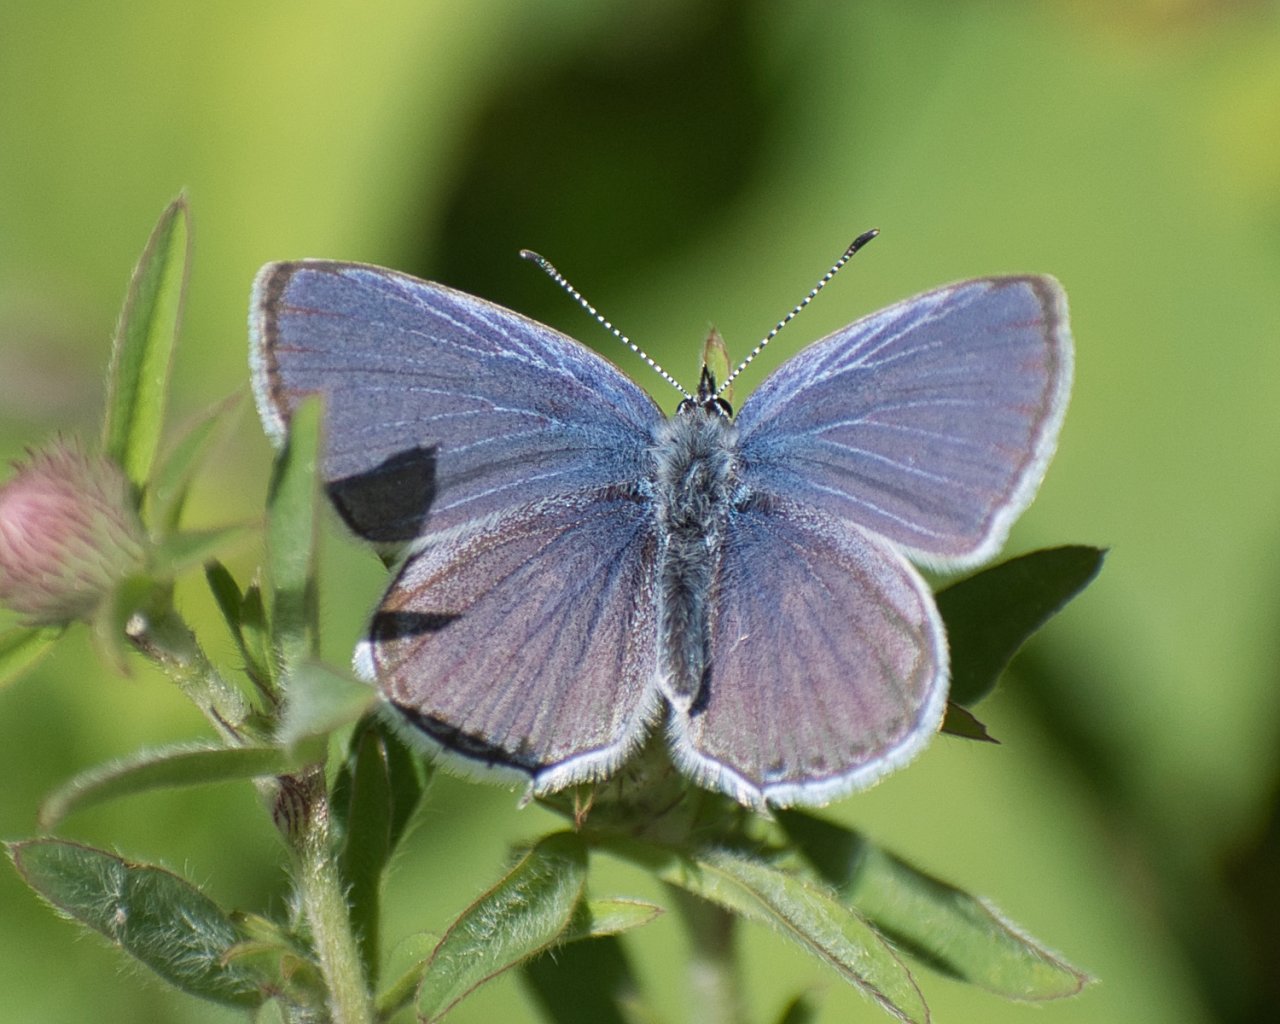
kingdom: Animalia
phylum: Arthropoda
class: Insecta
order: Lepidoptera
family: Lycaenidae
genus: Elkalyce
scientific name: Elkalyce amyntula
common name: Western Tailed-Blue
